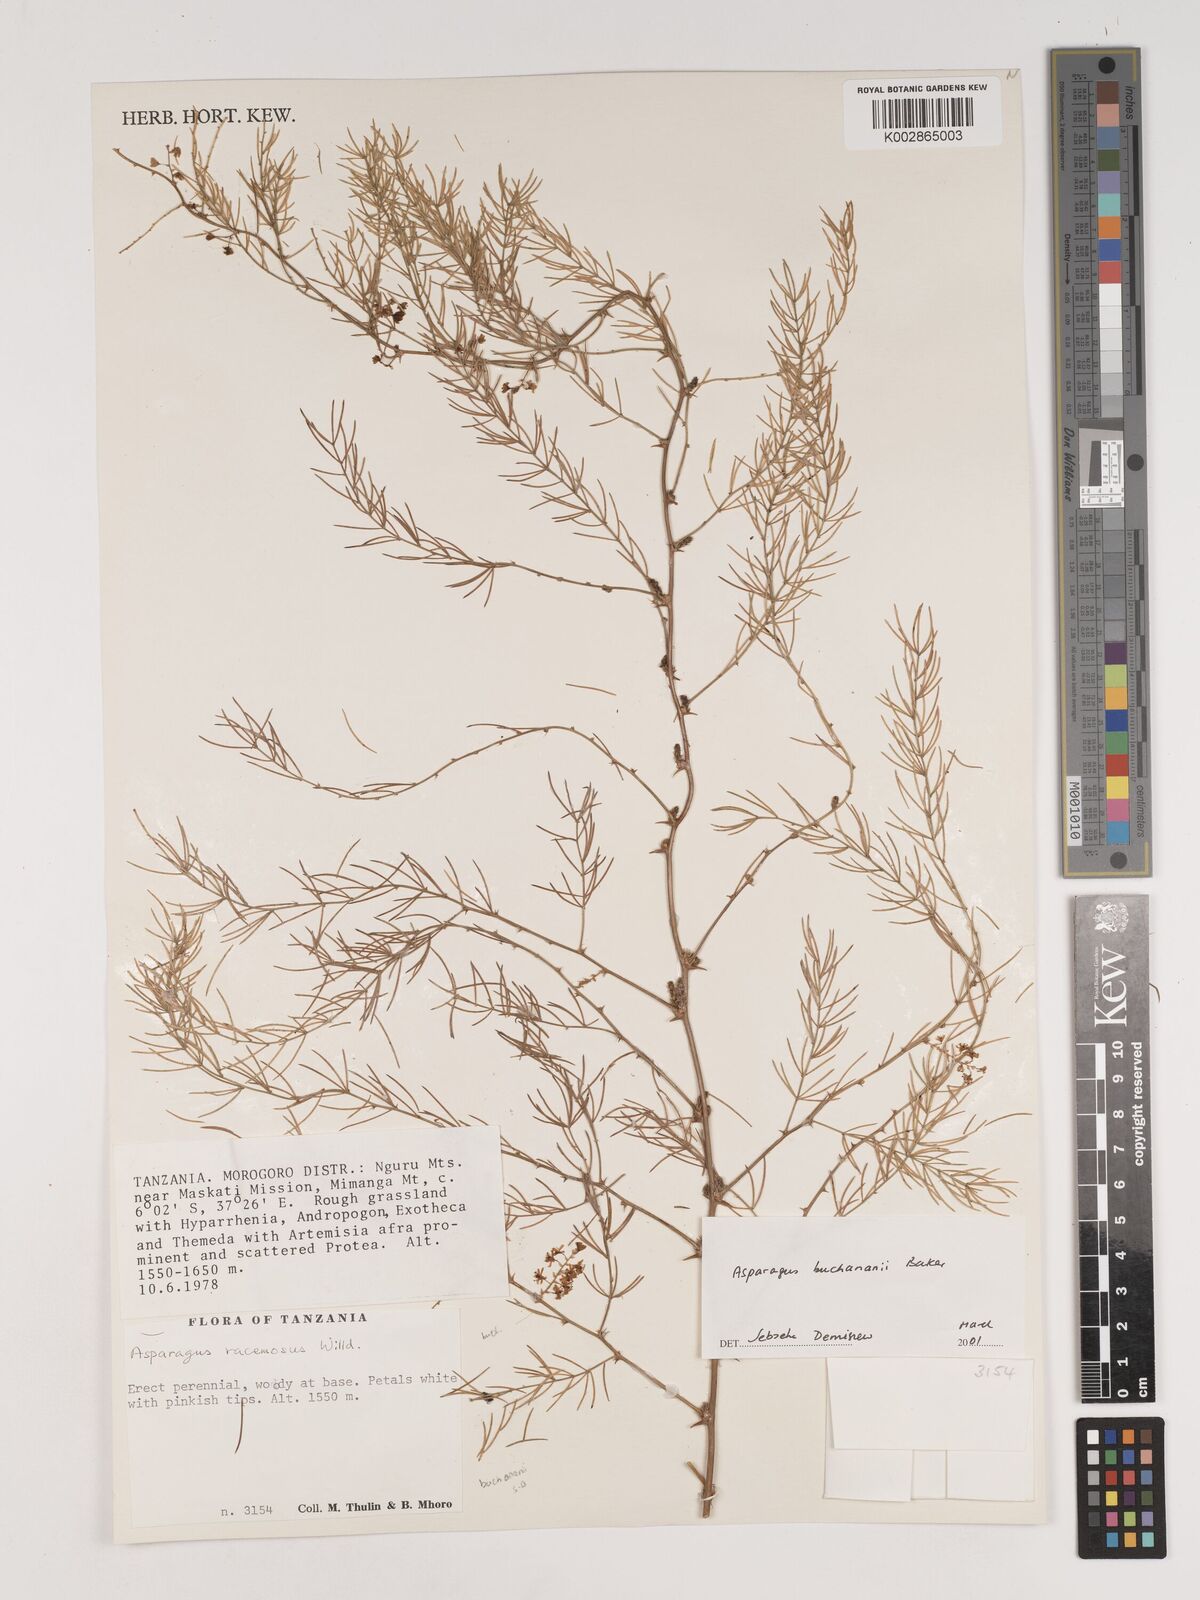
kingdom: Plantae
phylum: Tracheophyta
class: Liliopsida
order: Asparagales
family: Asparagaceae
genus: Asparagus
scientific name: Asparagus buchananii
